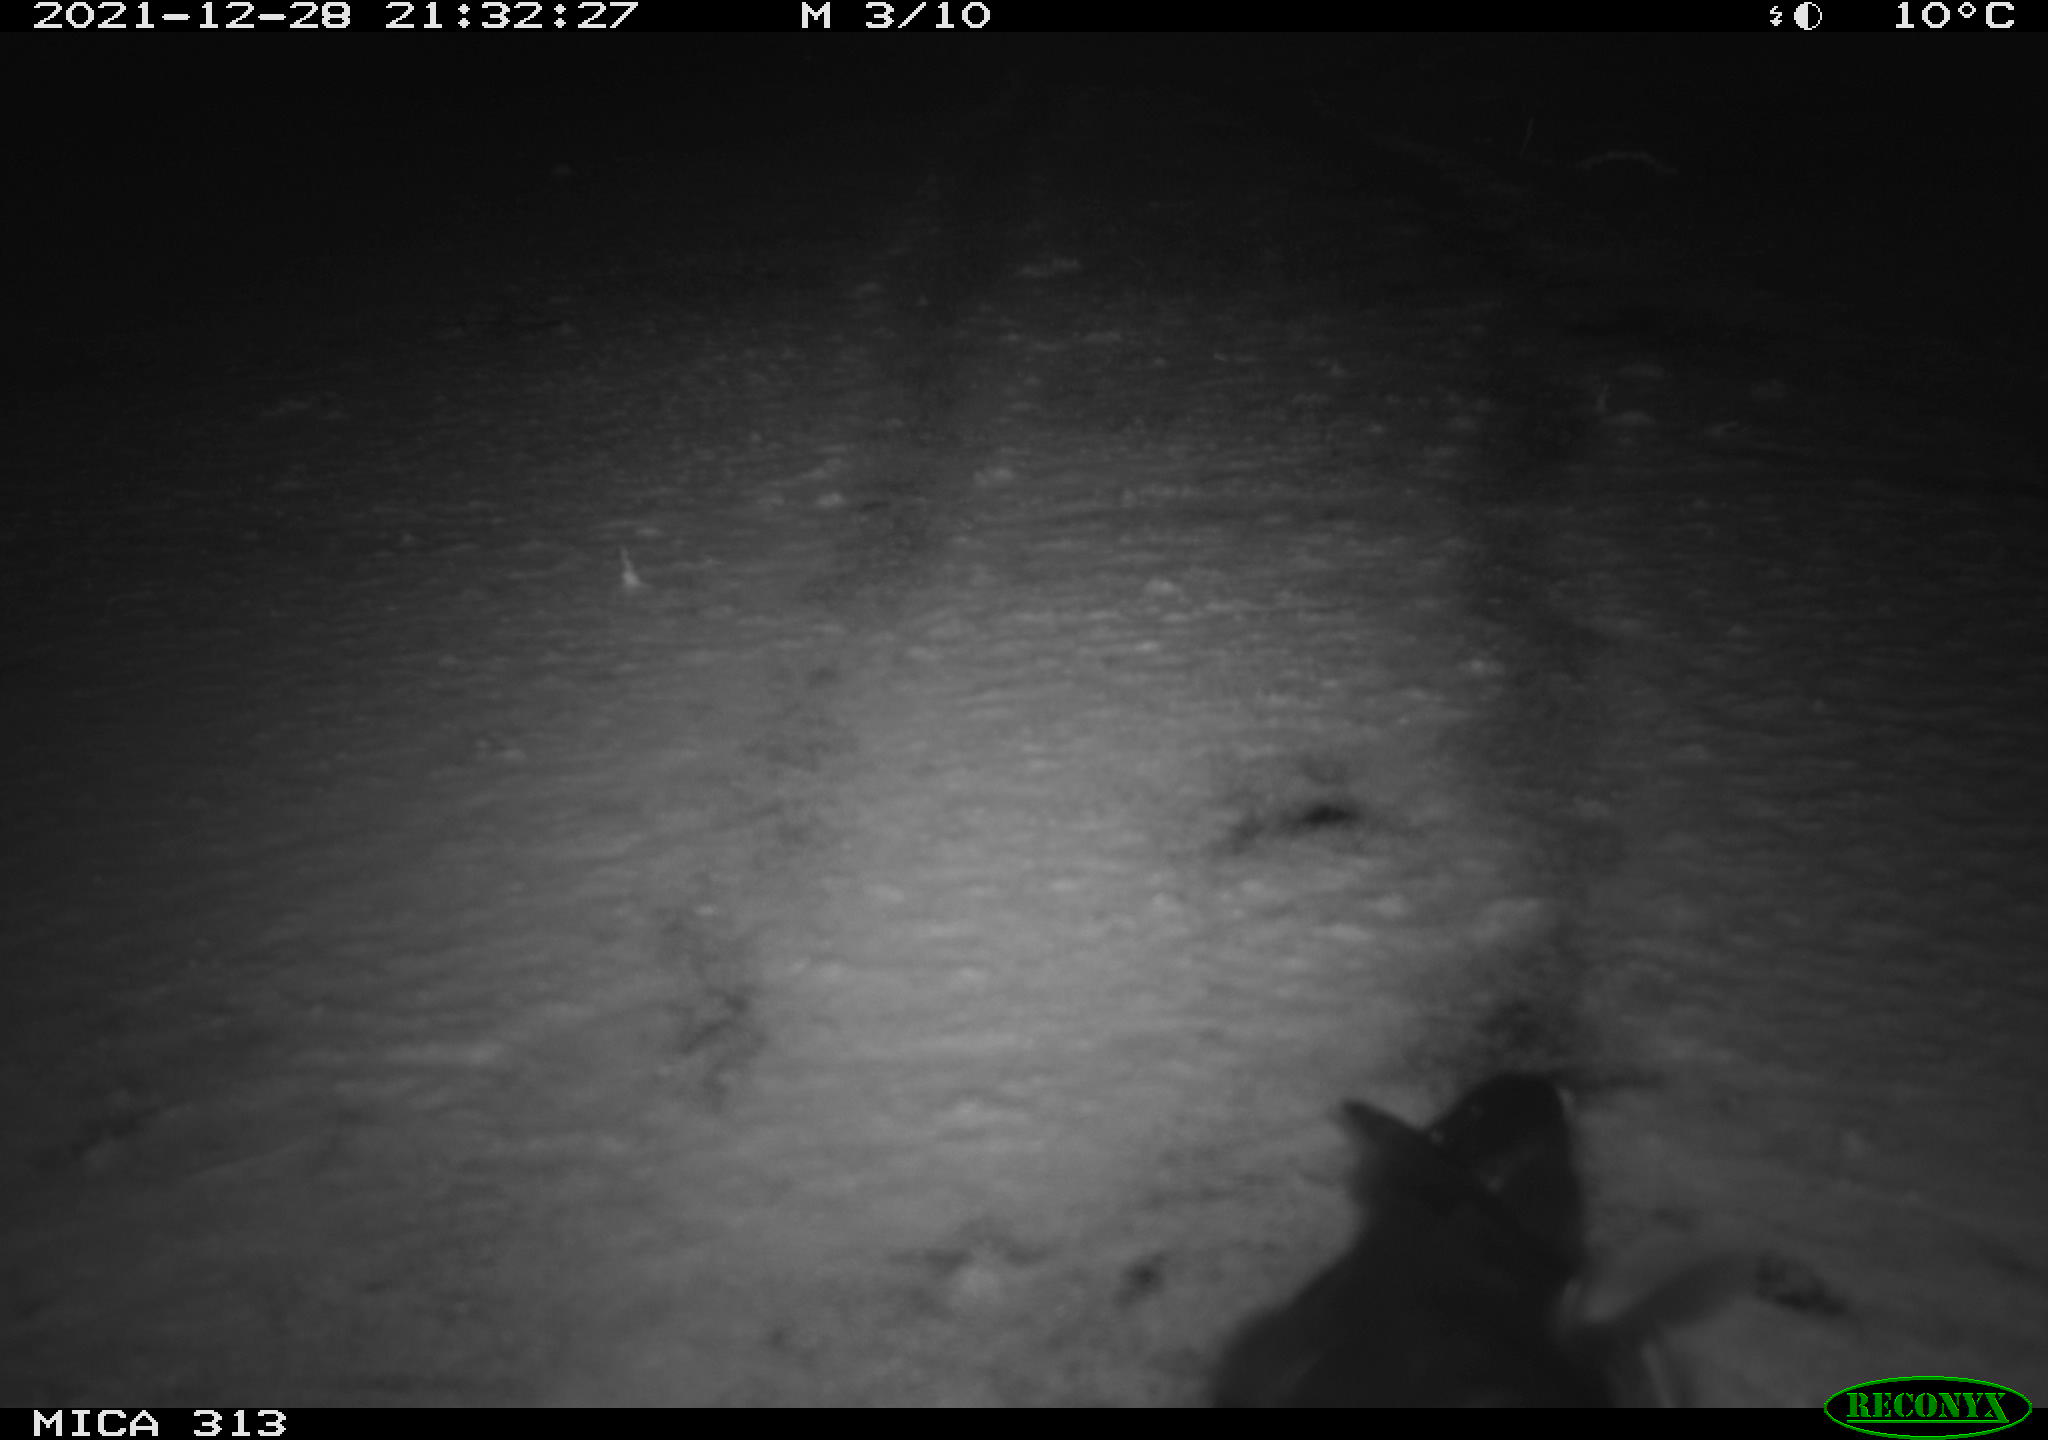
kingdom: Animalia
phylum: Chordata
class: Aves
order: Gruiformes
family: Rallidae
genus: Fulica
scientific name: Fulica atra
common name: Eurasian coot
